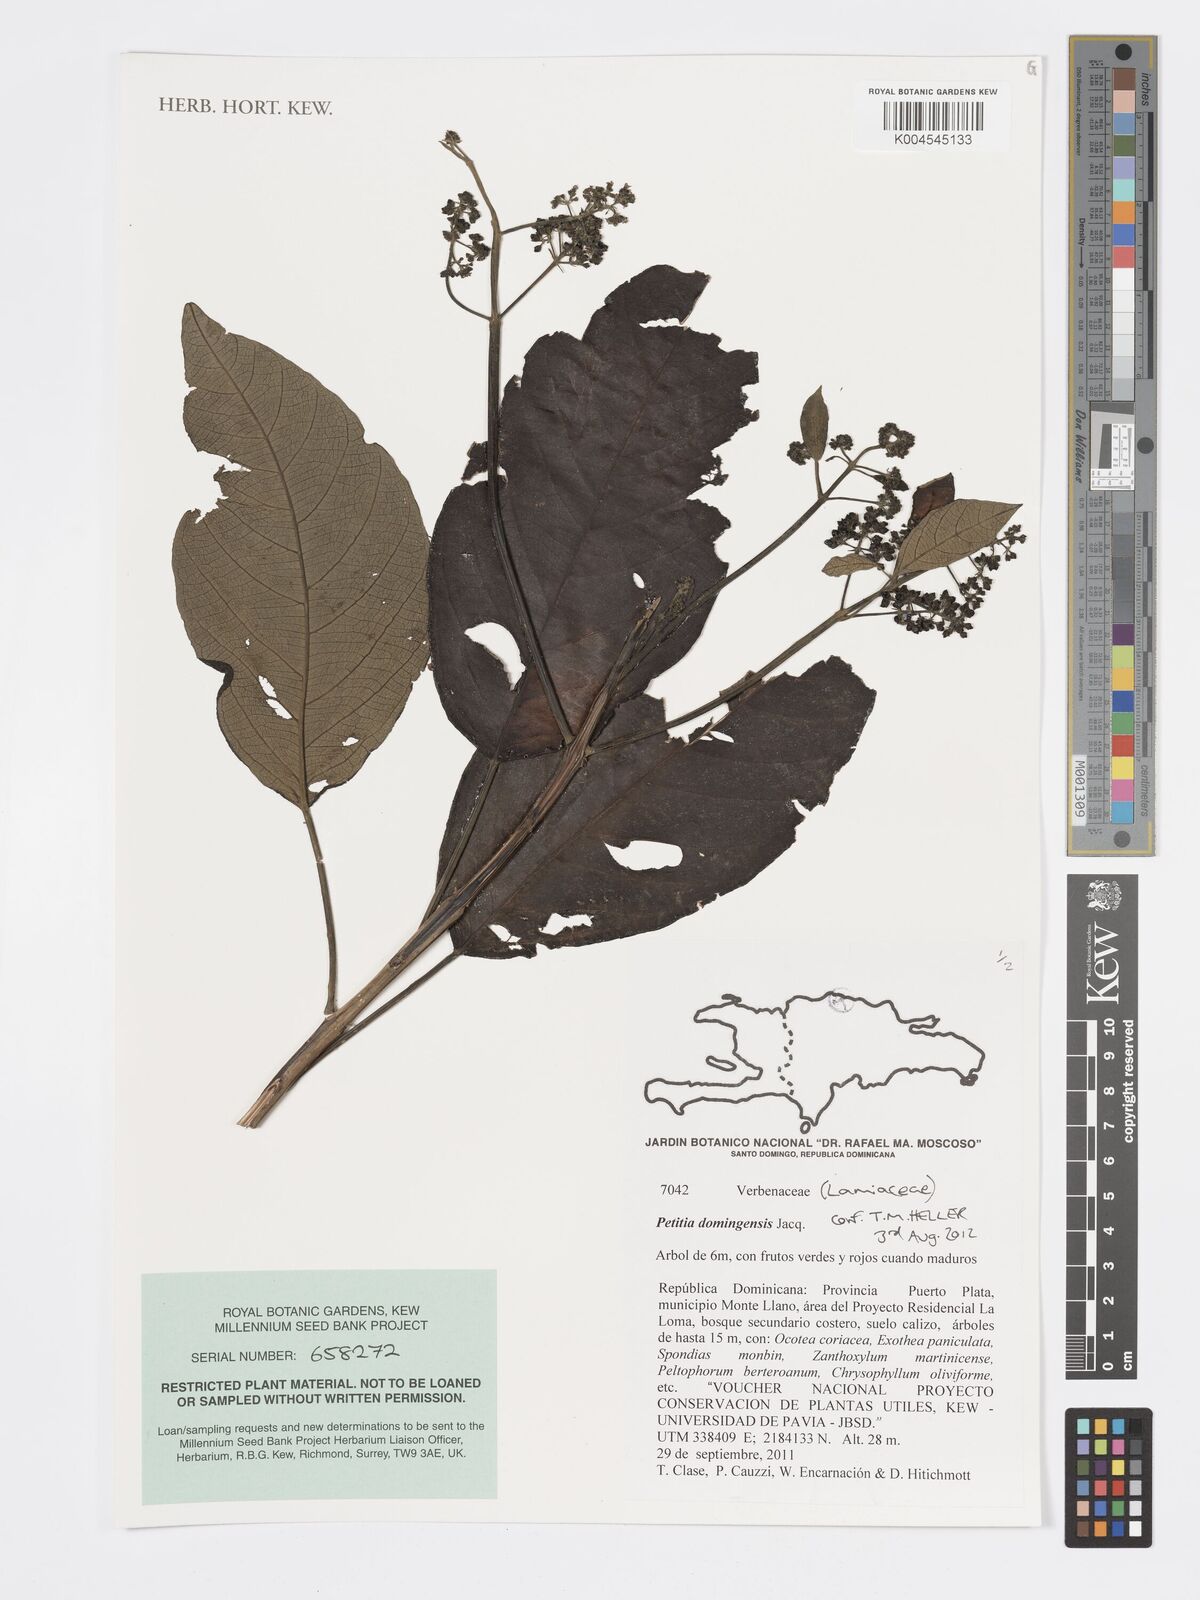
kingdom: Plantae
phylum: Tracheophyta
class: Magnoliopsida
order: Lamiales
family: Lamiaceae
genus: Petitia
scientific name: Petitia domingensis
